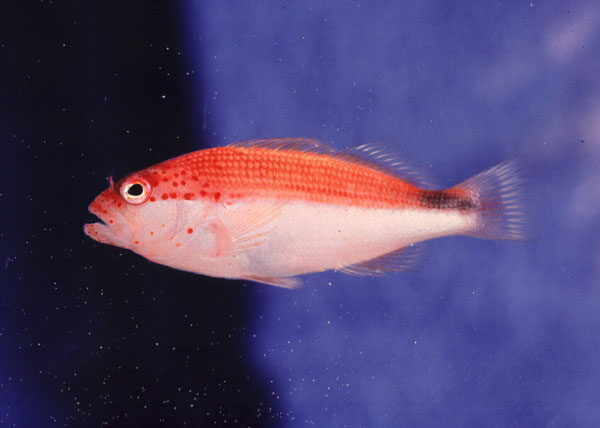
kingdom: Animalia
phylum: Chordata
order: Perciformes
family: Cirrhitidae
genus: Paracirrhites
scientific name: Paracirrhites forsteri
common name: Freckled hawkfish
